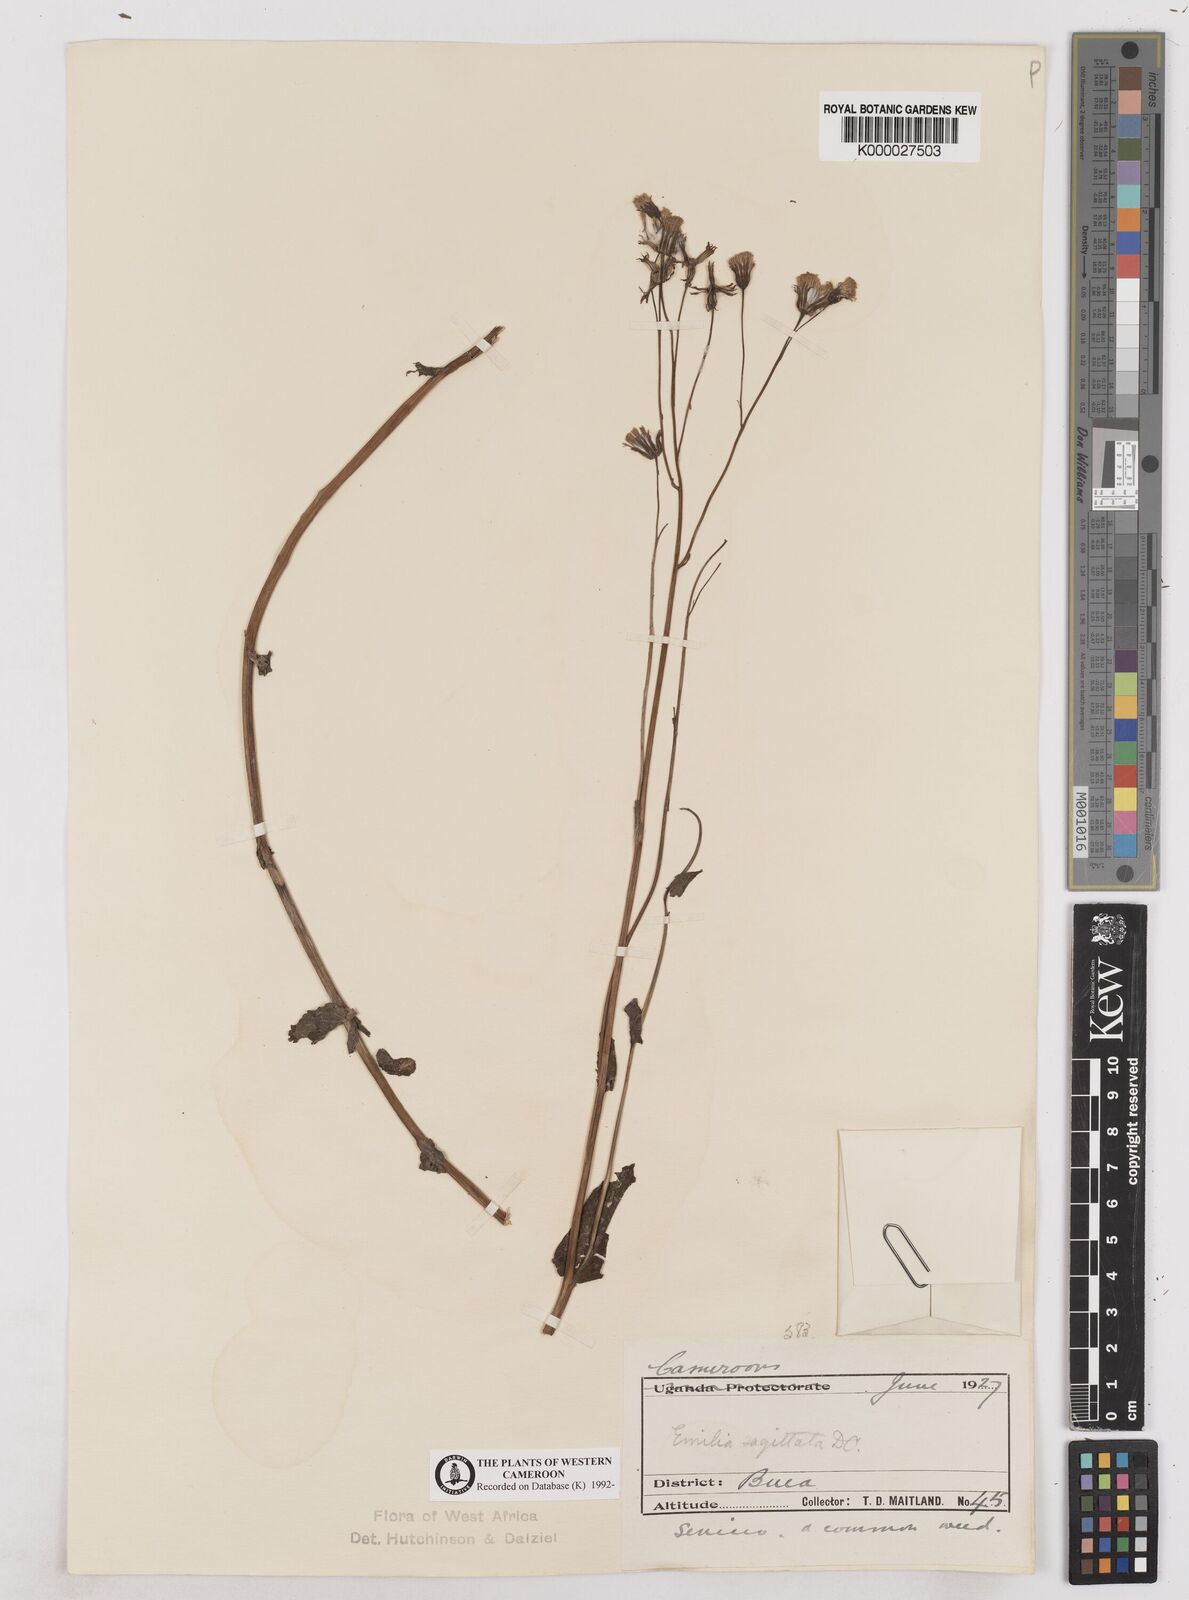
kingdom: Plantae
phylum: Tracheophyta
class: Magnoliopsida
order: Asterales
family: Asteraceae
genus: Emilia
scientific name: Emilia lisowskiana
